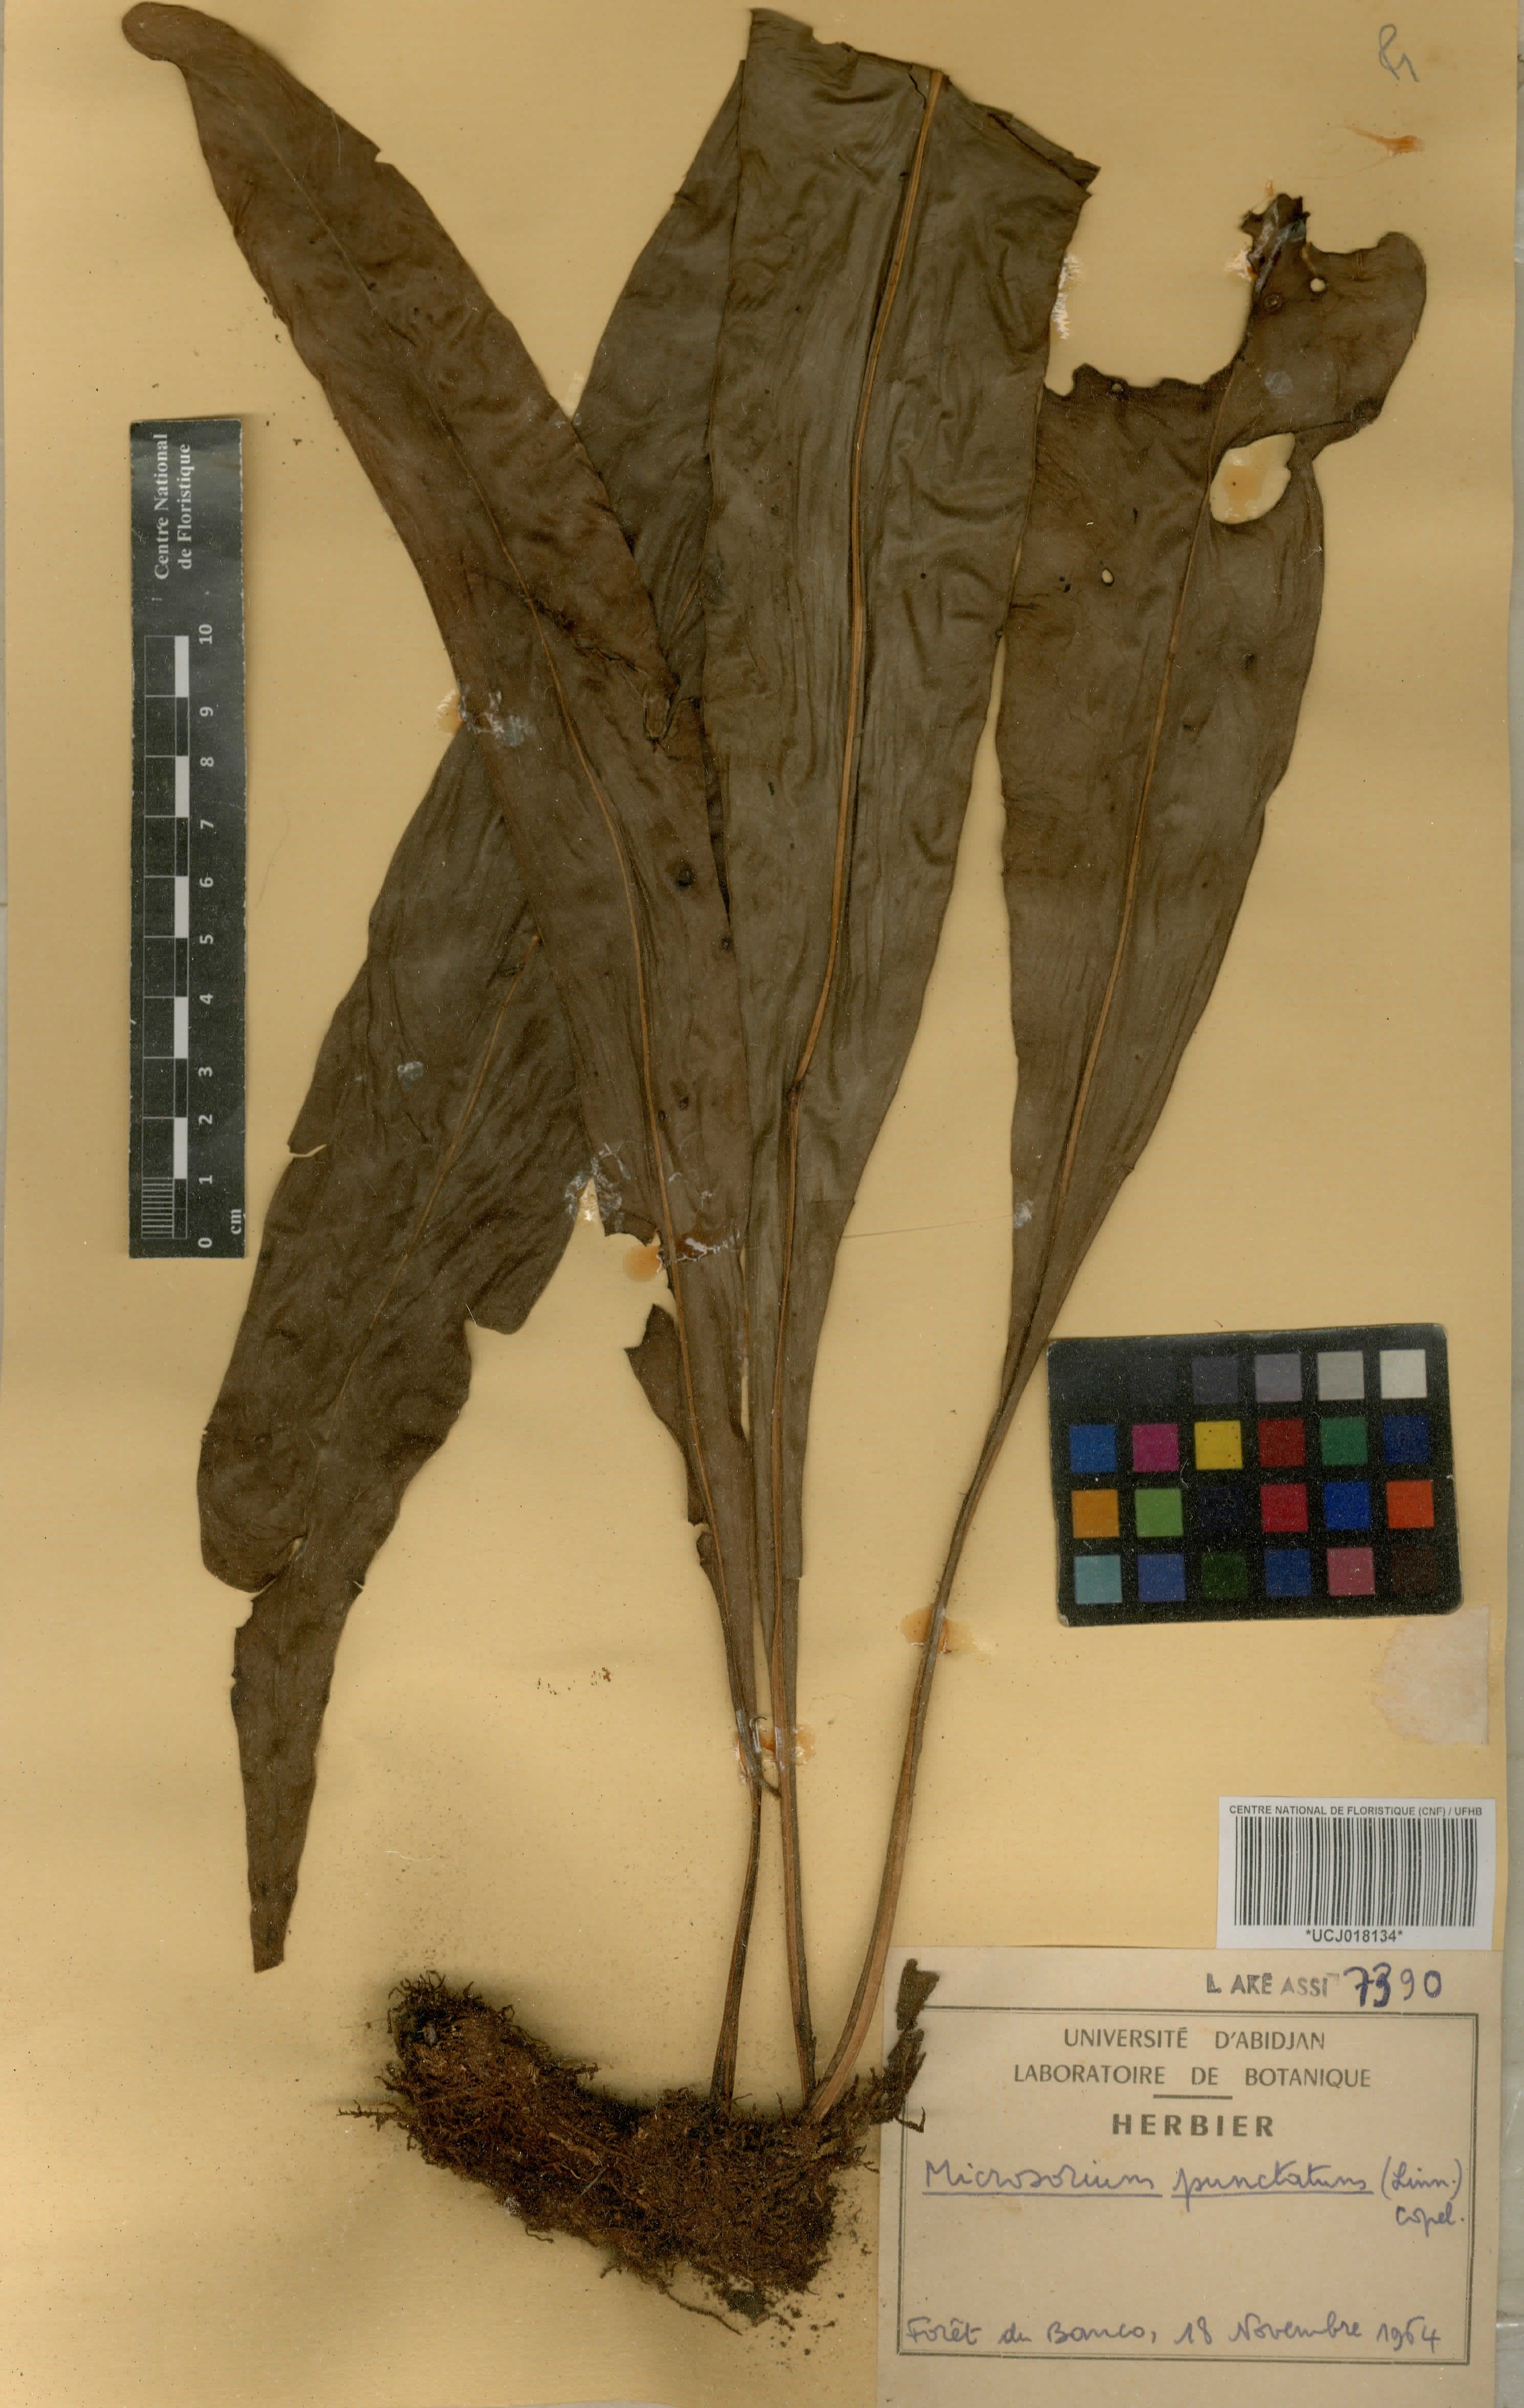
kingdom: Plantae
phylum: Tracheophyta
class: Polypodiopsida
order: Polypodiales
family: Polypodiaceae
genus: Microsorum
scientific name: Microsorum punctatum
